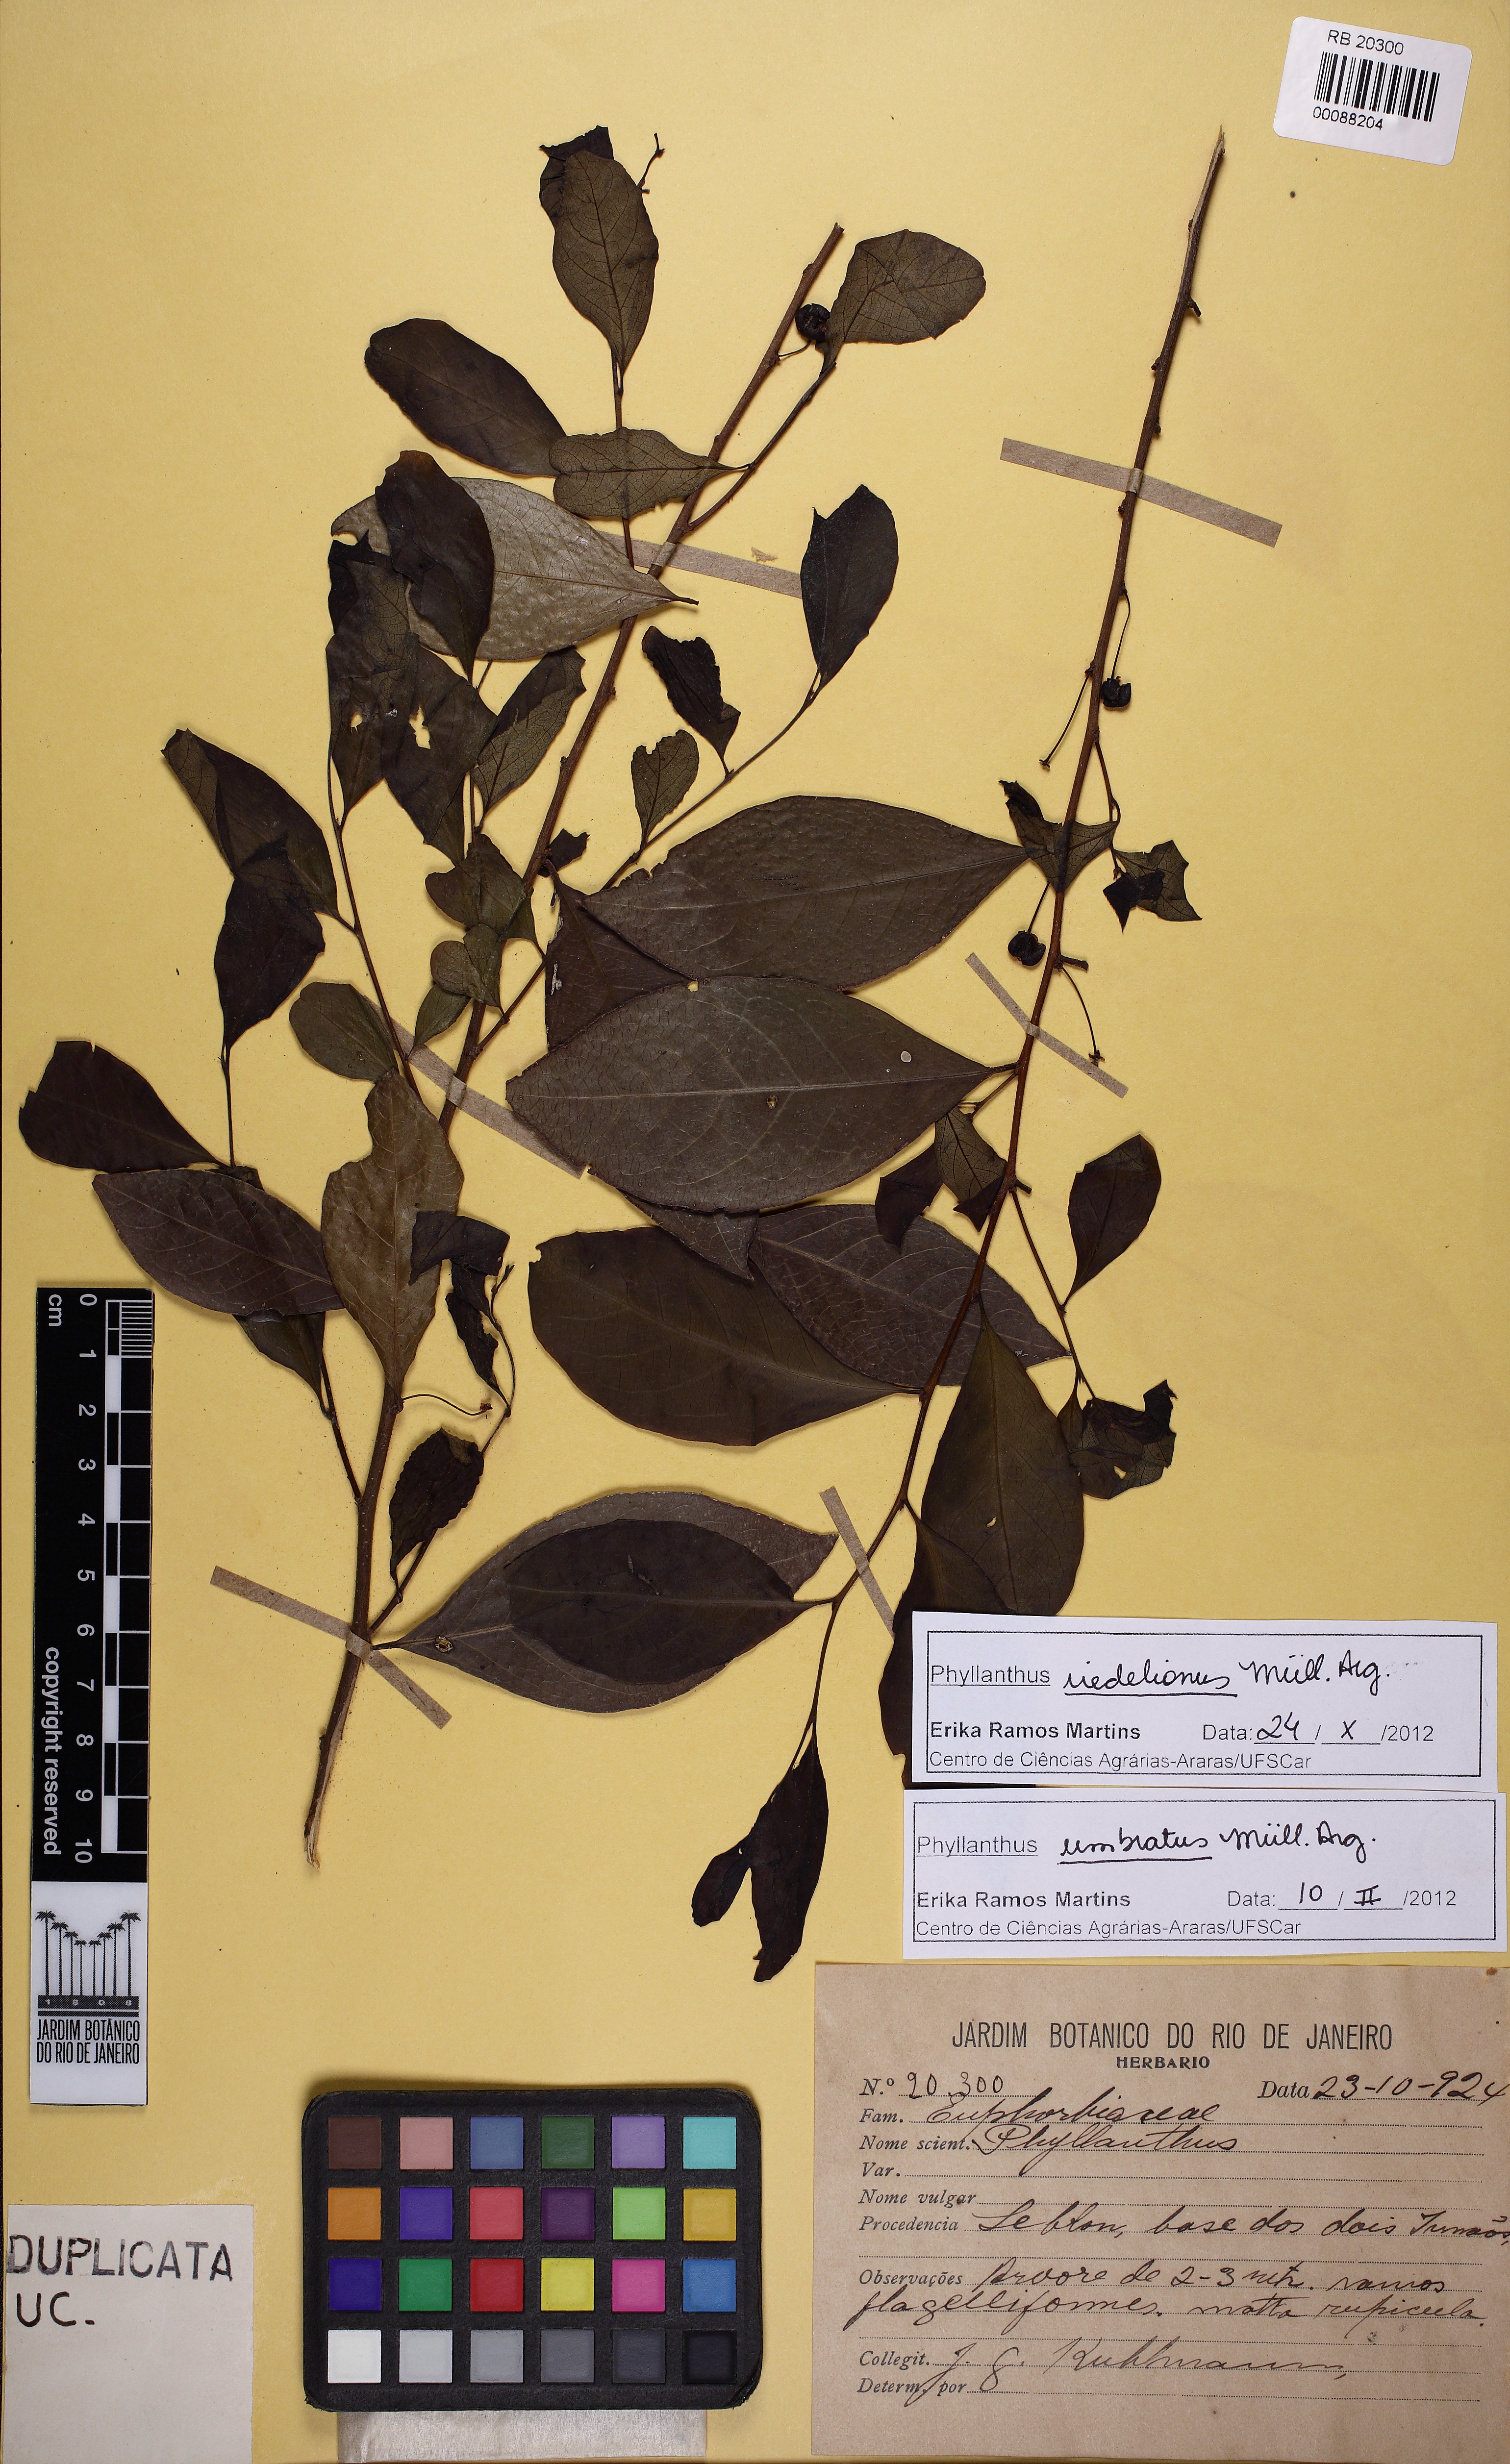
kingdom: Plantae
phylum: Tracheophyta
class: Magnoliopsida
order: Malpighiales
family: Phyllanthaceae
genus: Phyllanthus
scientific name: Phyllanthus riedelianus
